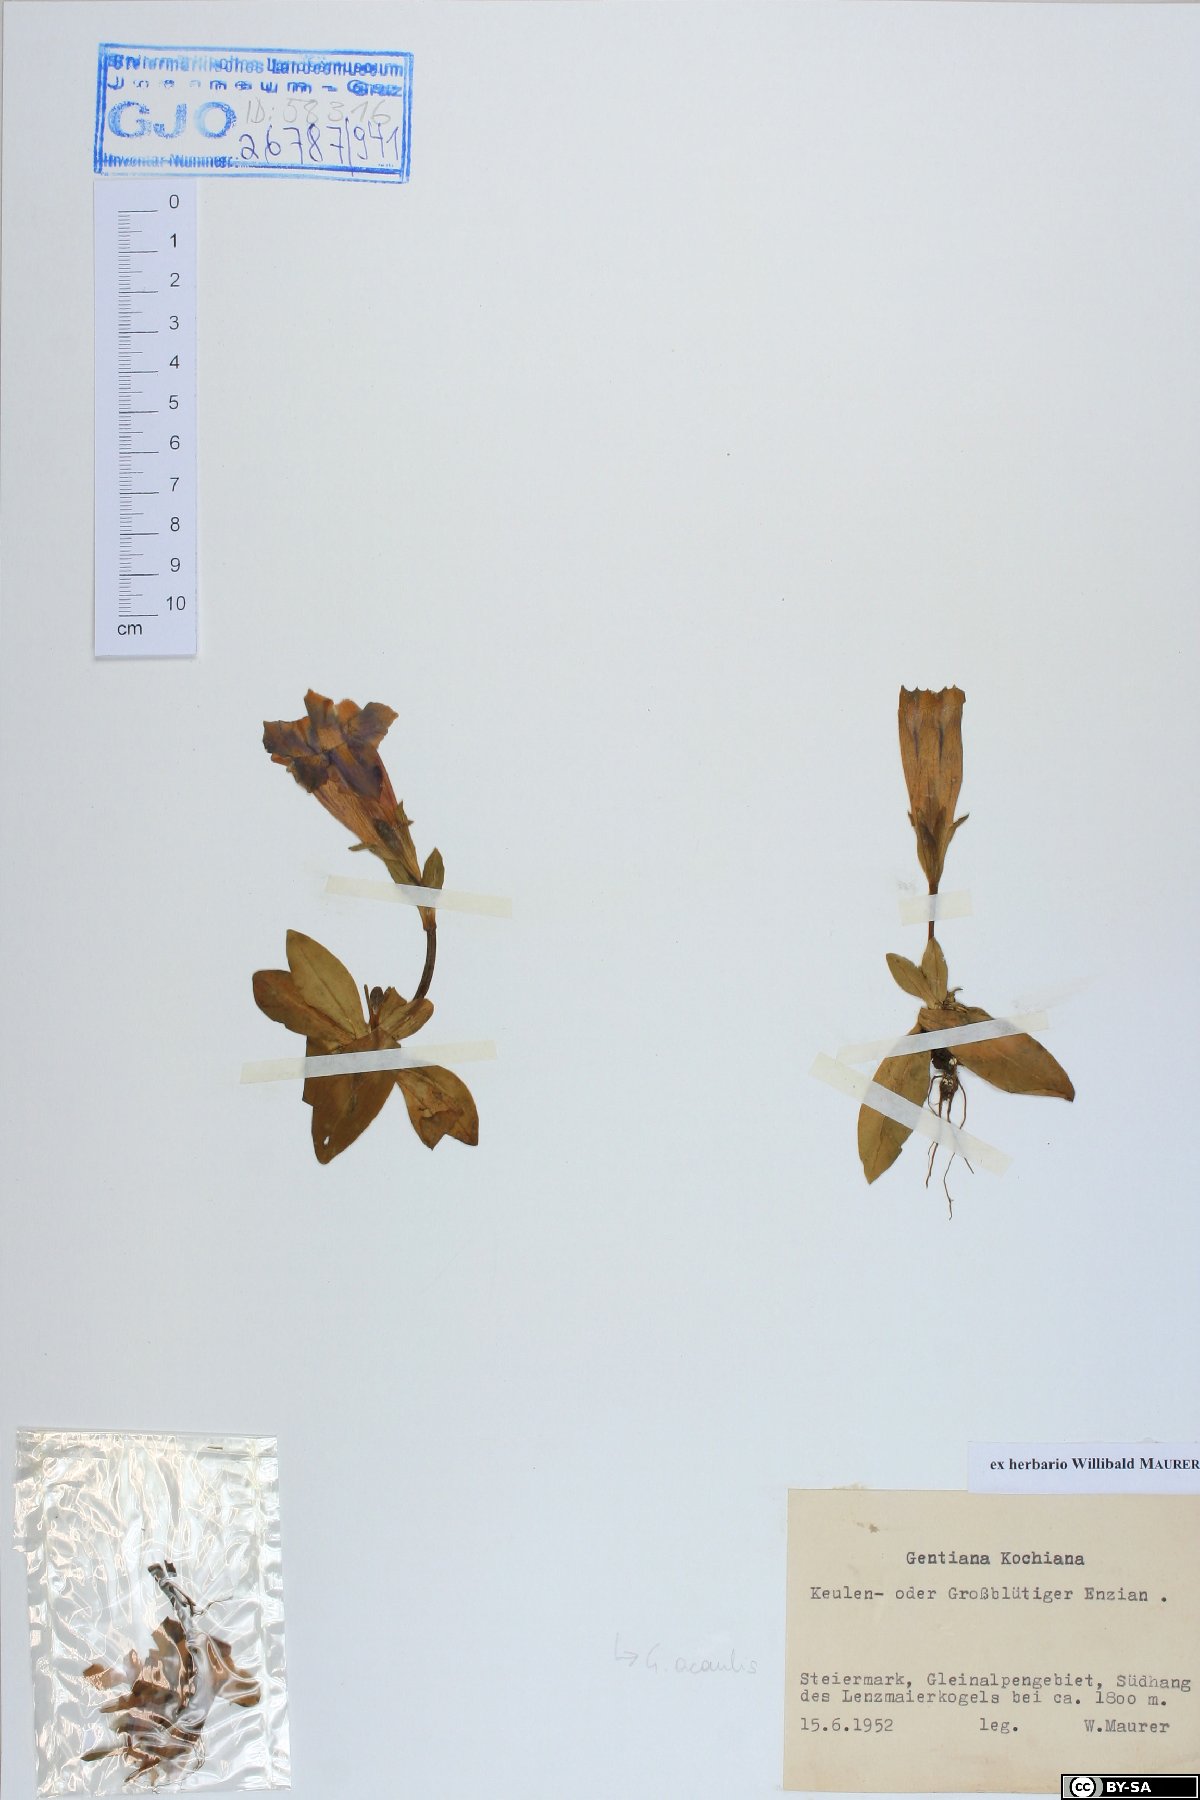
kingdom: Plantae
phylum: Tracheophyta
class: Magnoliopsida
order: Gentianales
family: Gentianaceae
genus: Gentiana
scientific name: Gentiana acaulis
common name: Trumpet gentian
